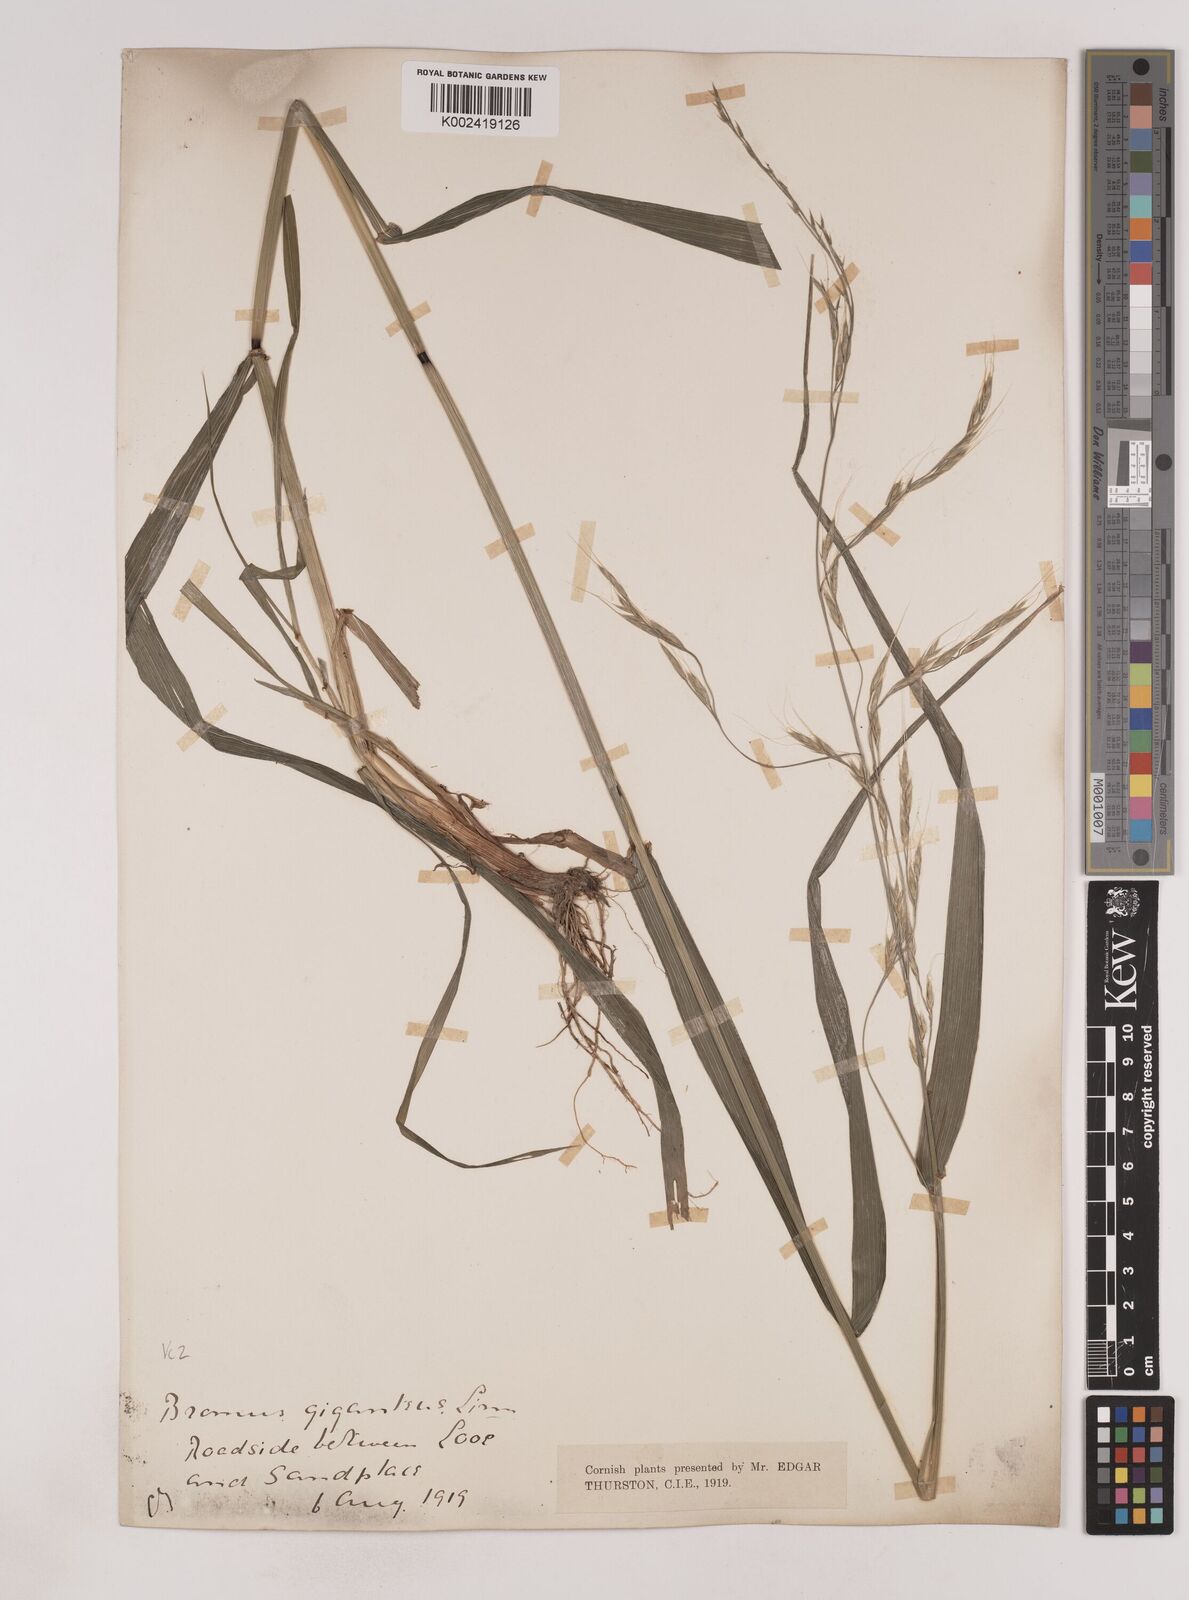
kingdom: Plantae
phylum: Tracheophyta
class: Liliopsida
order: Poales
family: Poaceae
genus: Lolium
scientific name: Lolium giganteum
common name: Giant fescue
